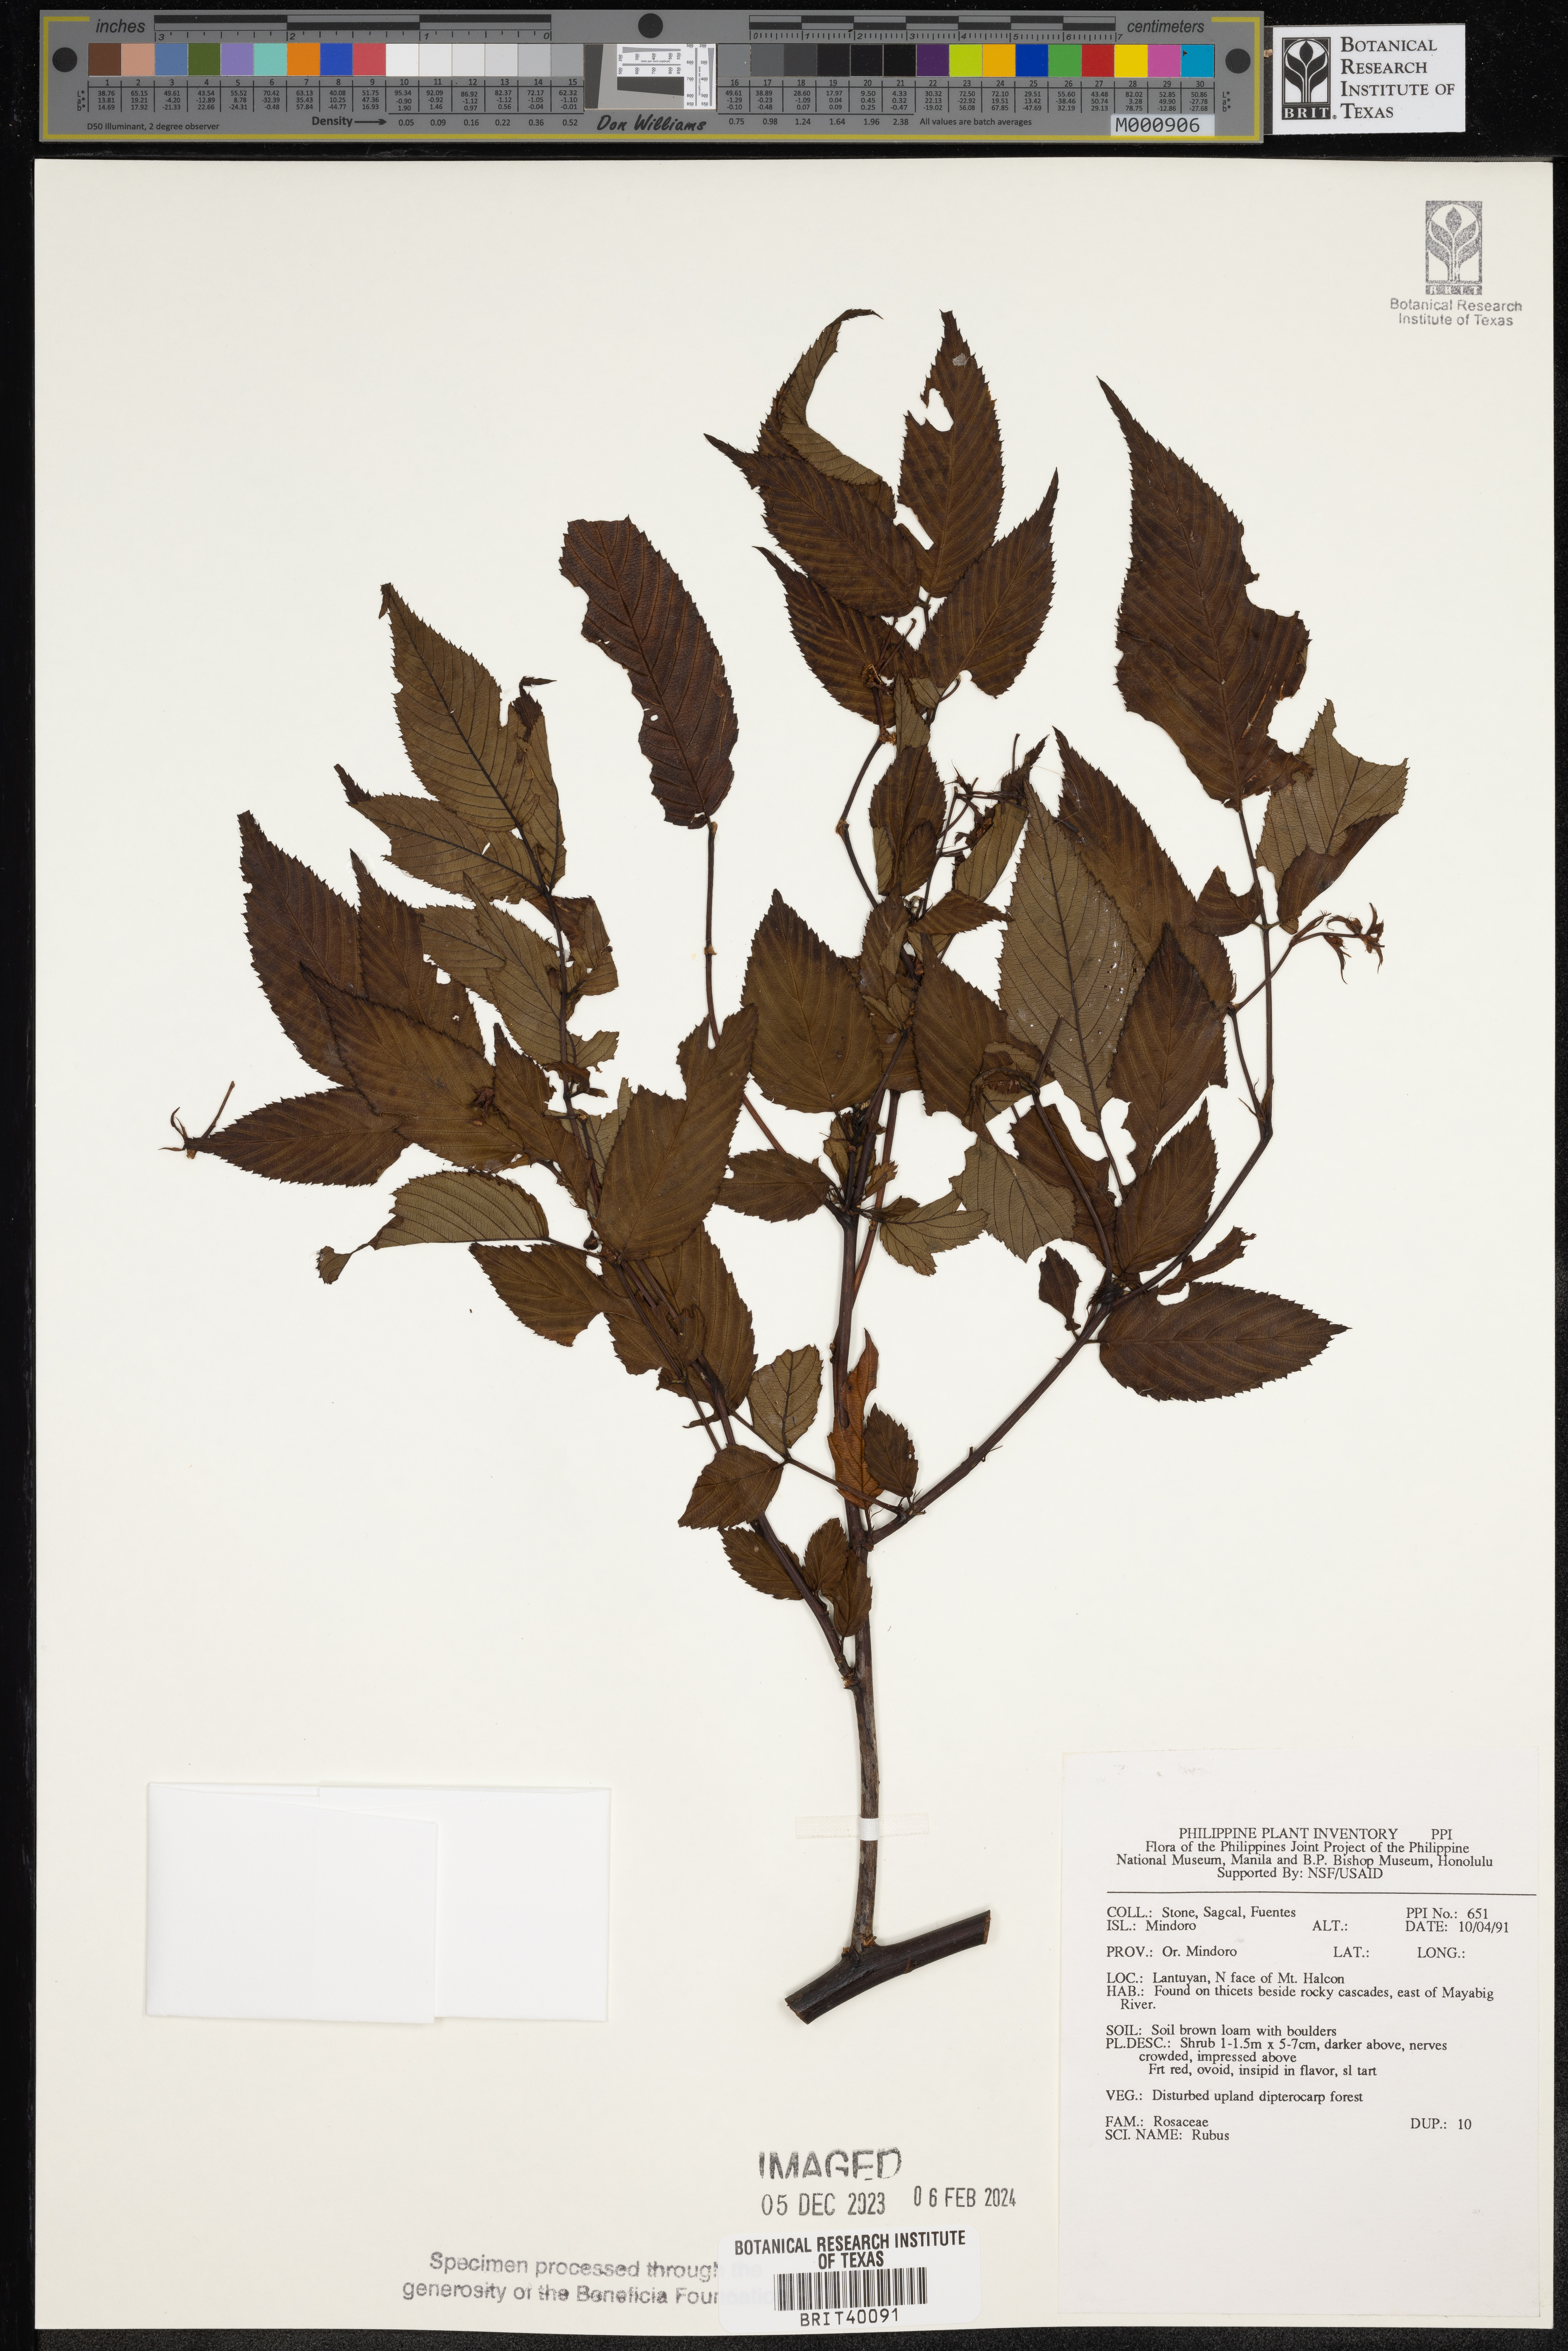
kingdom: Plantae
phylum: Tracheophyta
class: Magnoliopsida
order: Rosales
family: Rosaceae
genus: Rubus
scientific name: Rubus
